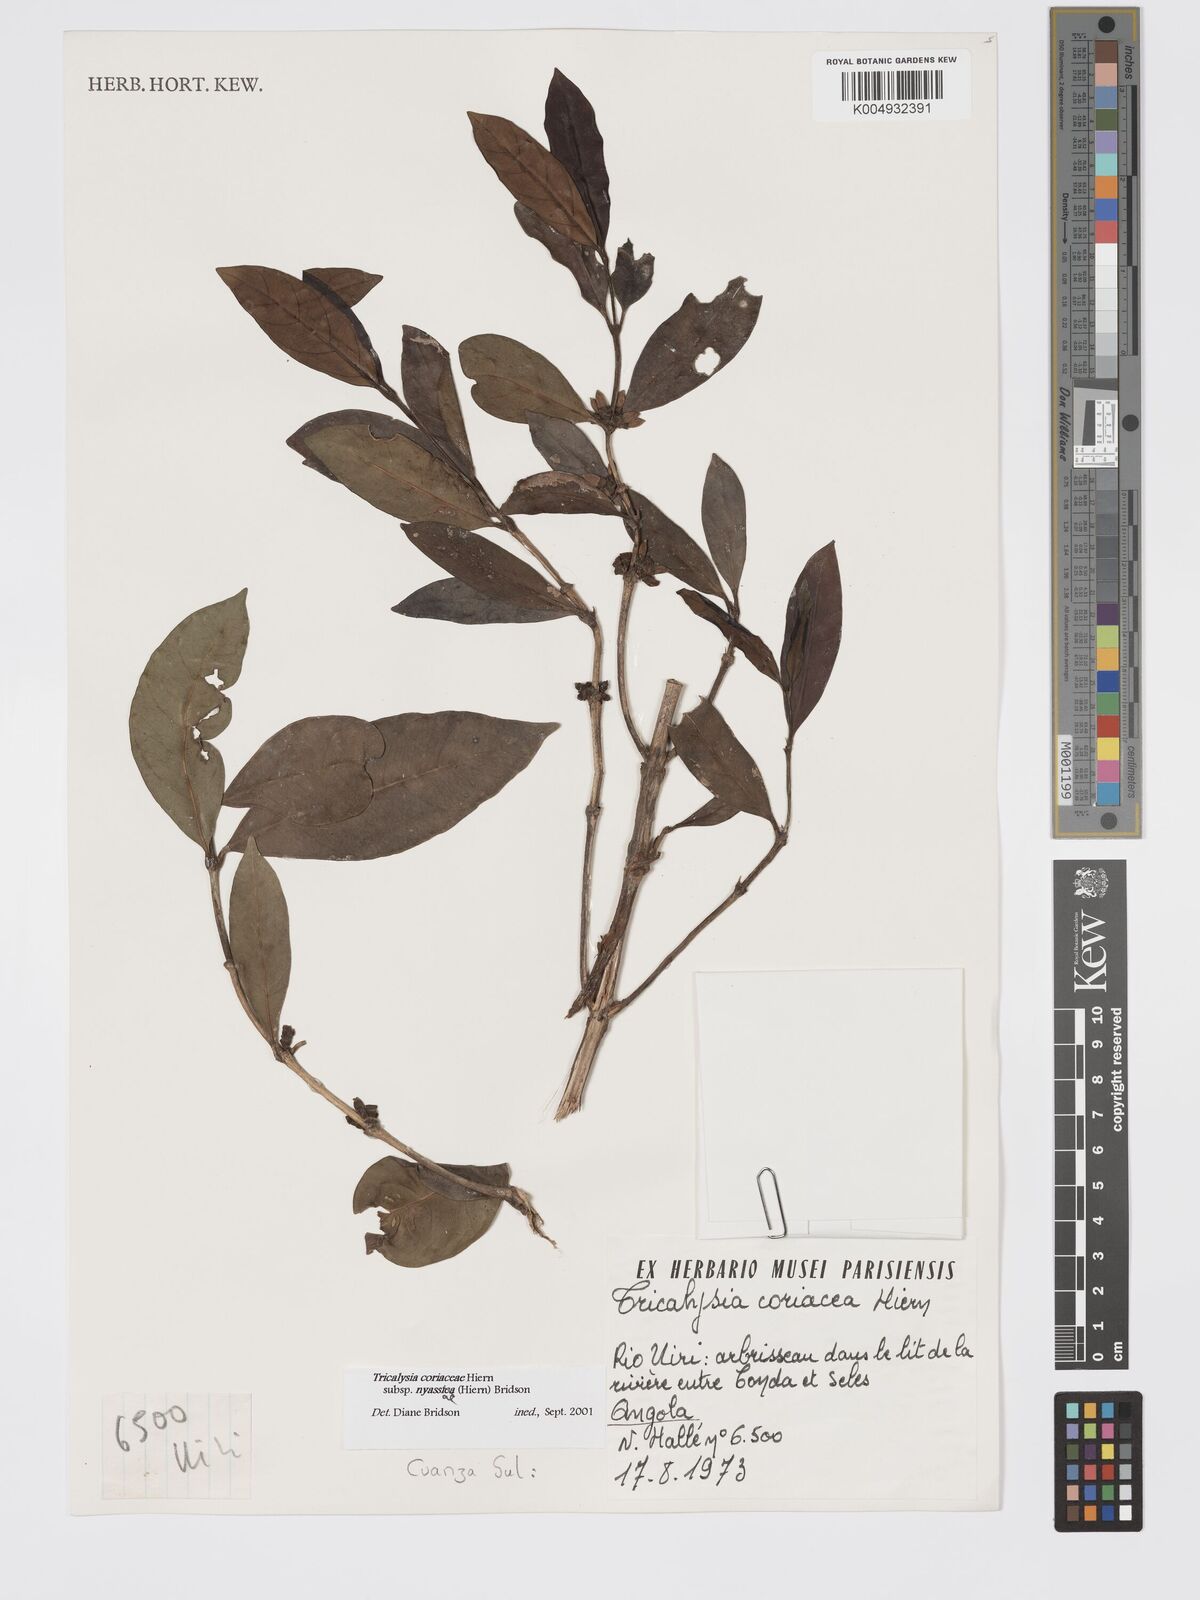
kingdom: Plantae
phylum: Tracheophyta
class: Magnoliopsida
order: Gentianales
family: Rubiaceae
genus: Tricalysia
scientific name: Tricalysia coriacea
